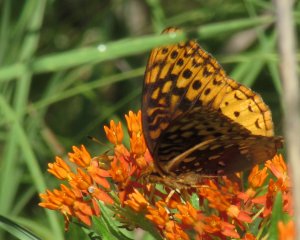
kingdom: Animalia
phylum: Arthropoda
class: Insecta
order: Lepidoptera
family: Nymphalidae
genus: Speyeria
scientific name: Speyeria cybele
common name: Great Spangled Fritillary
